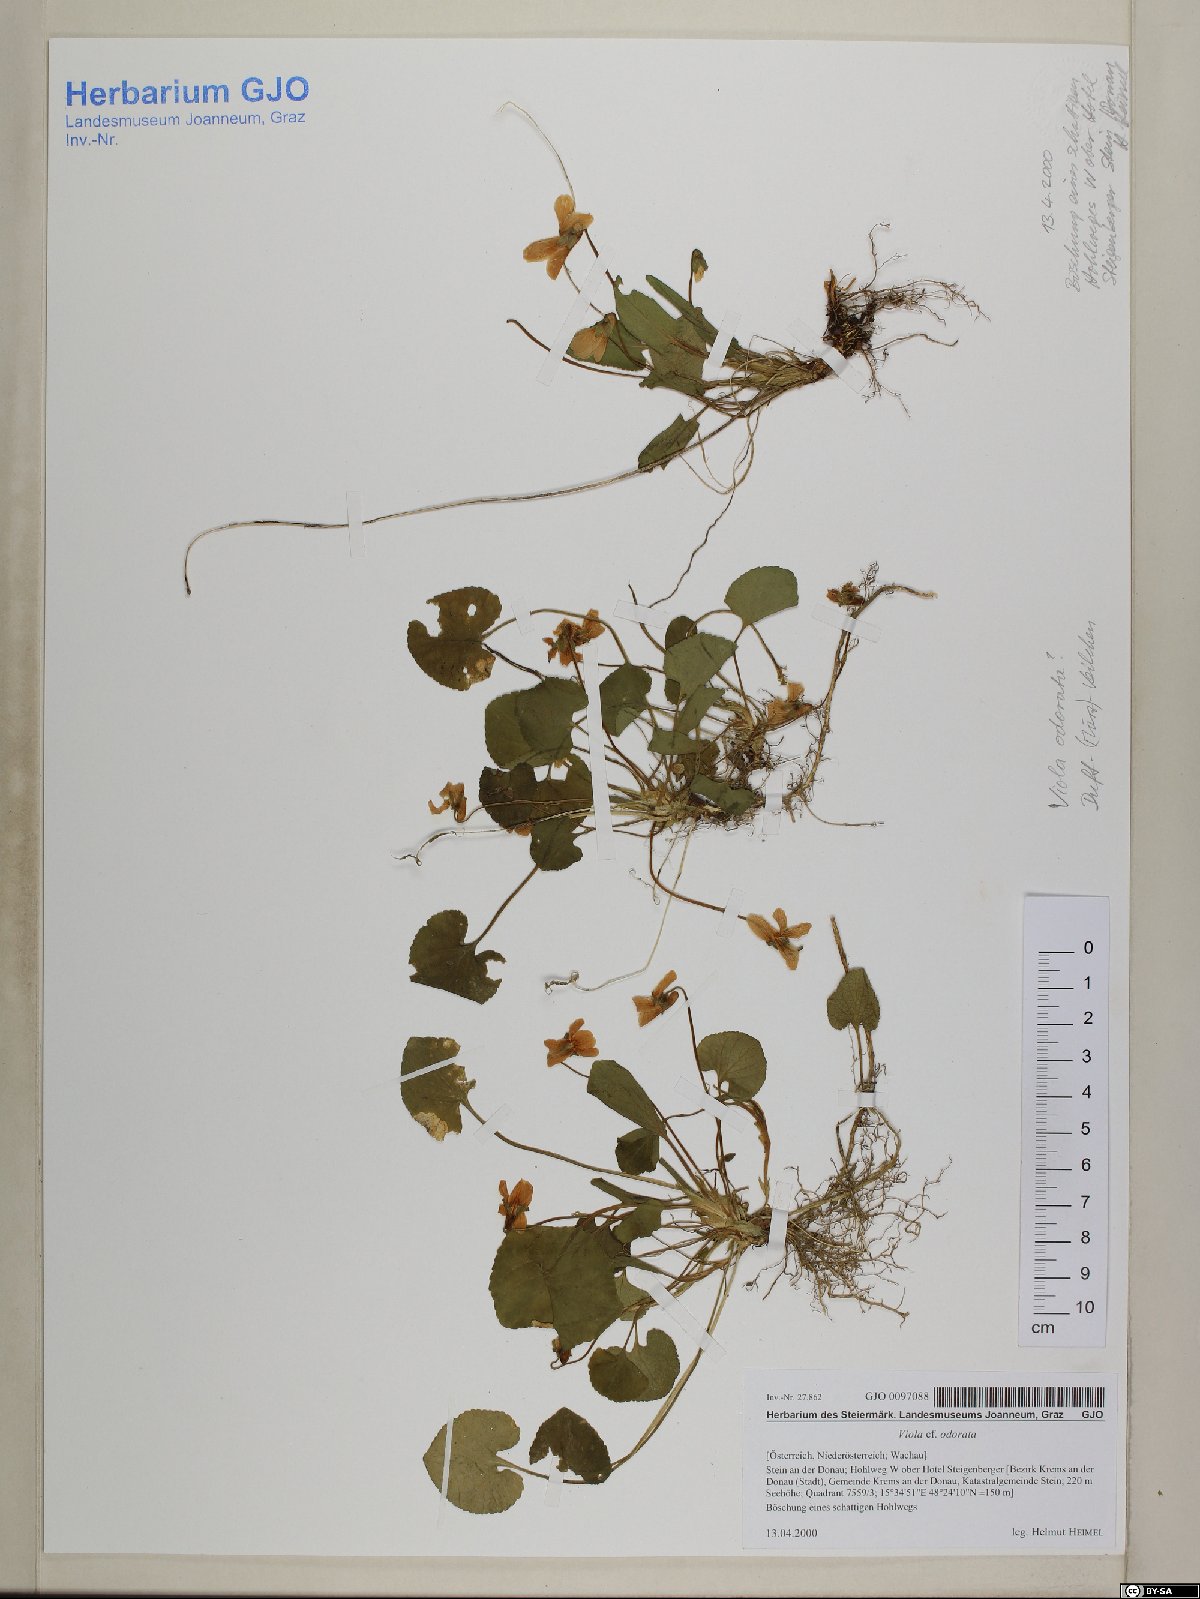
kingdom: Plantae
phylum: Tracheophyta
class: Magnoliopsida
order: Malpighiales
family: Violaceae
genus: Viola
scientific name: Viola odorata
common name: Sweet violet
